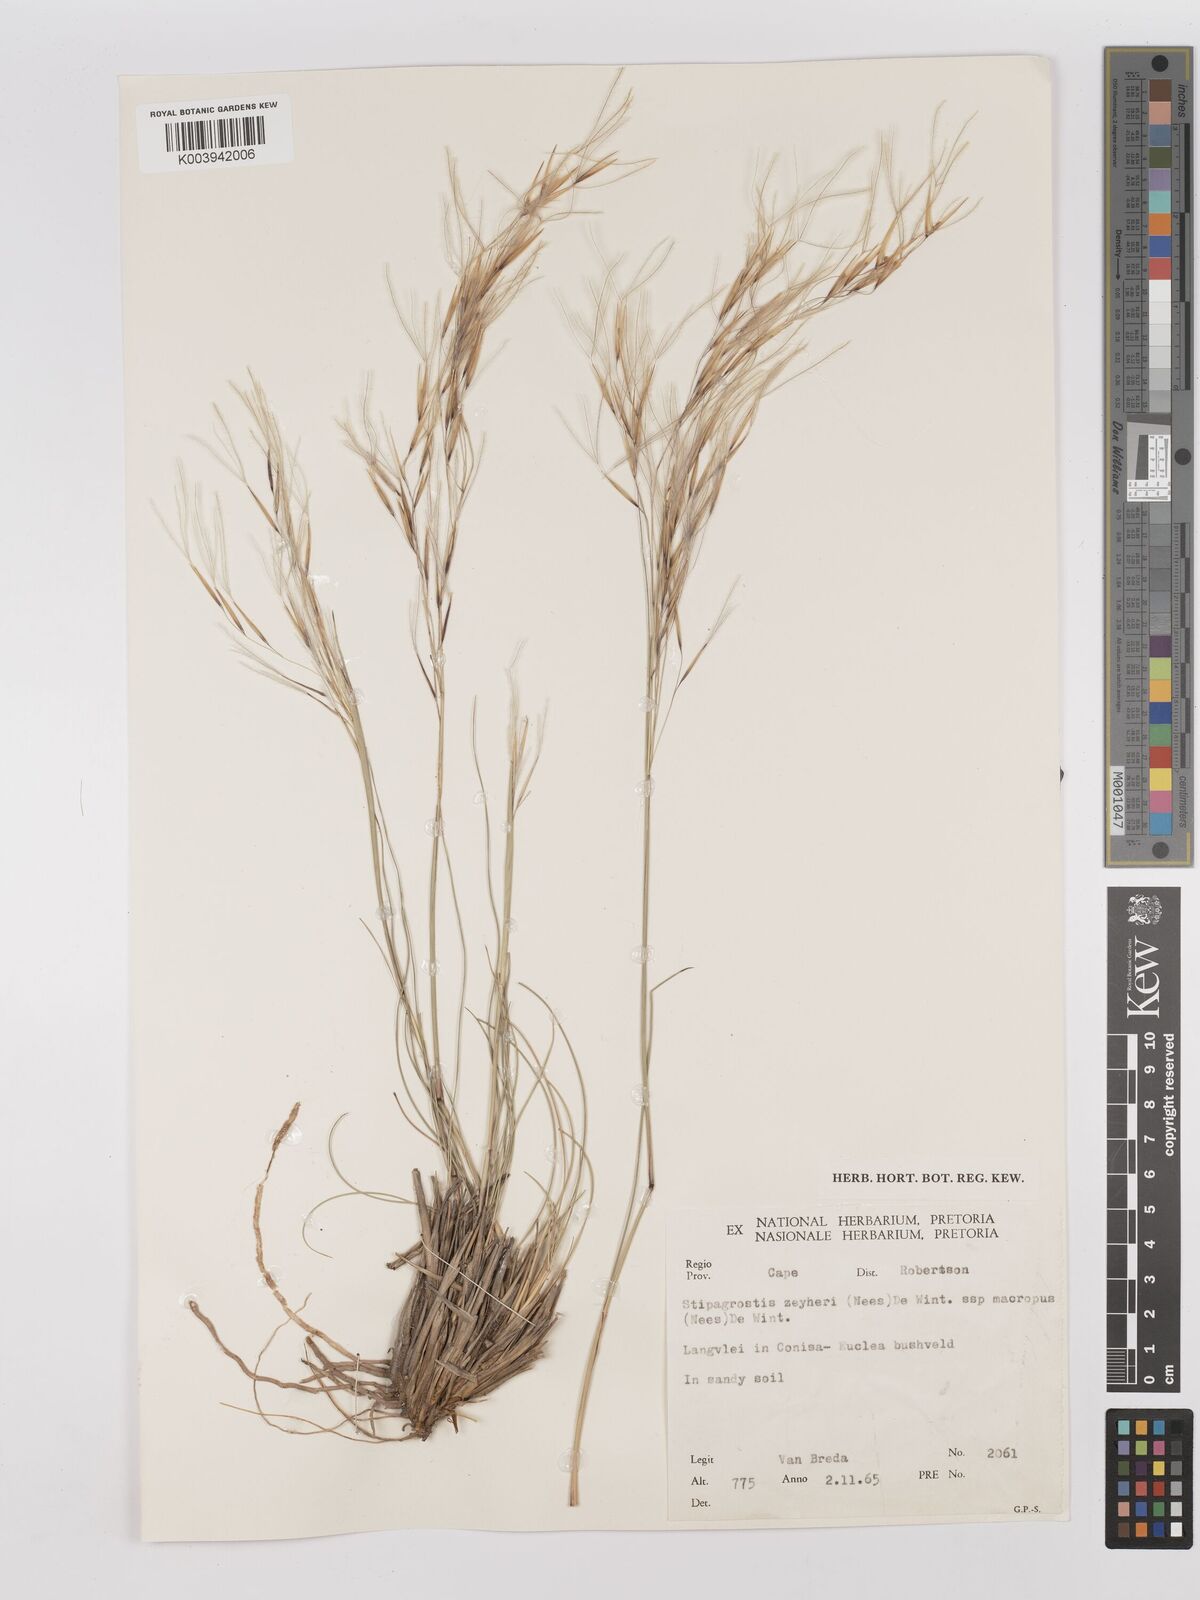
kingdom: Plantae
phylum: Tracheophyta
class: Liliopsida
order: Poales
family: Poaceae
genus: Stipagrostis
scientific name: Stipagrostis zeyheri
